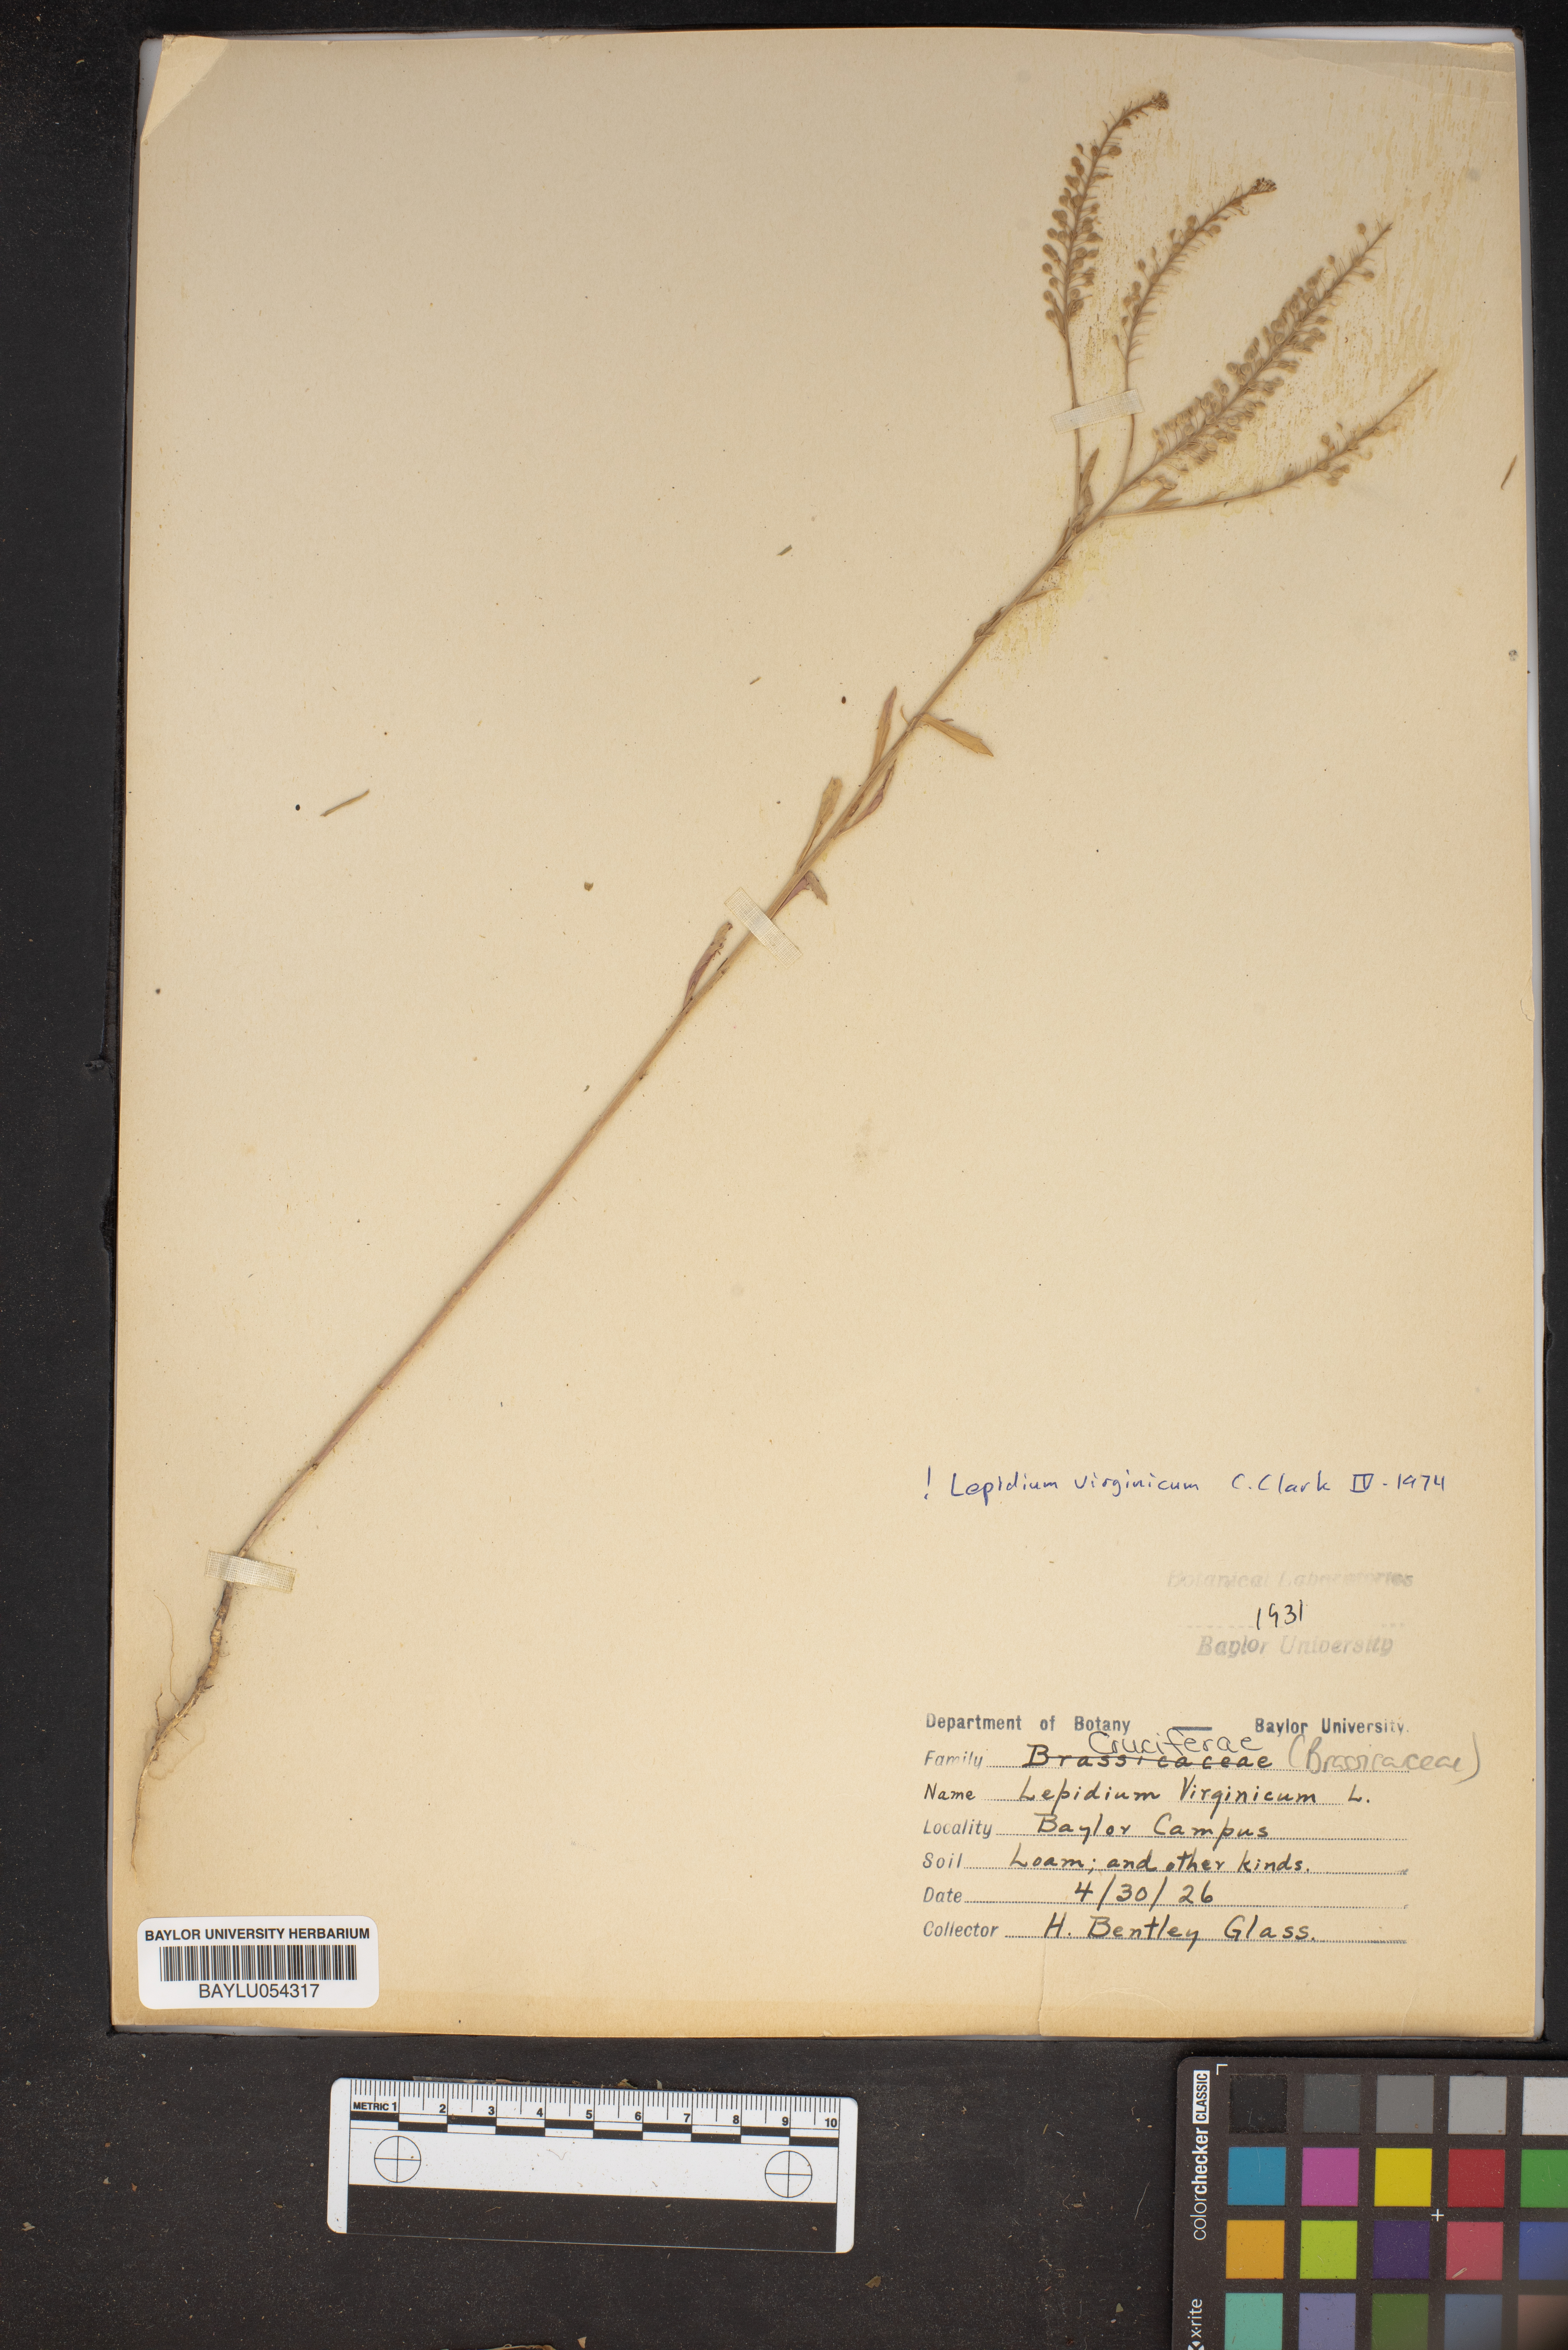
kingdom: Plantae
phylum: Tracheophyta
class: Magnoliopsida
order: Brassicales
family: Brassicaceae
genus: Lepidium
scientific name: Lepidium virginicum
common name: Least pepperwort
